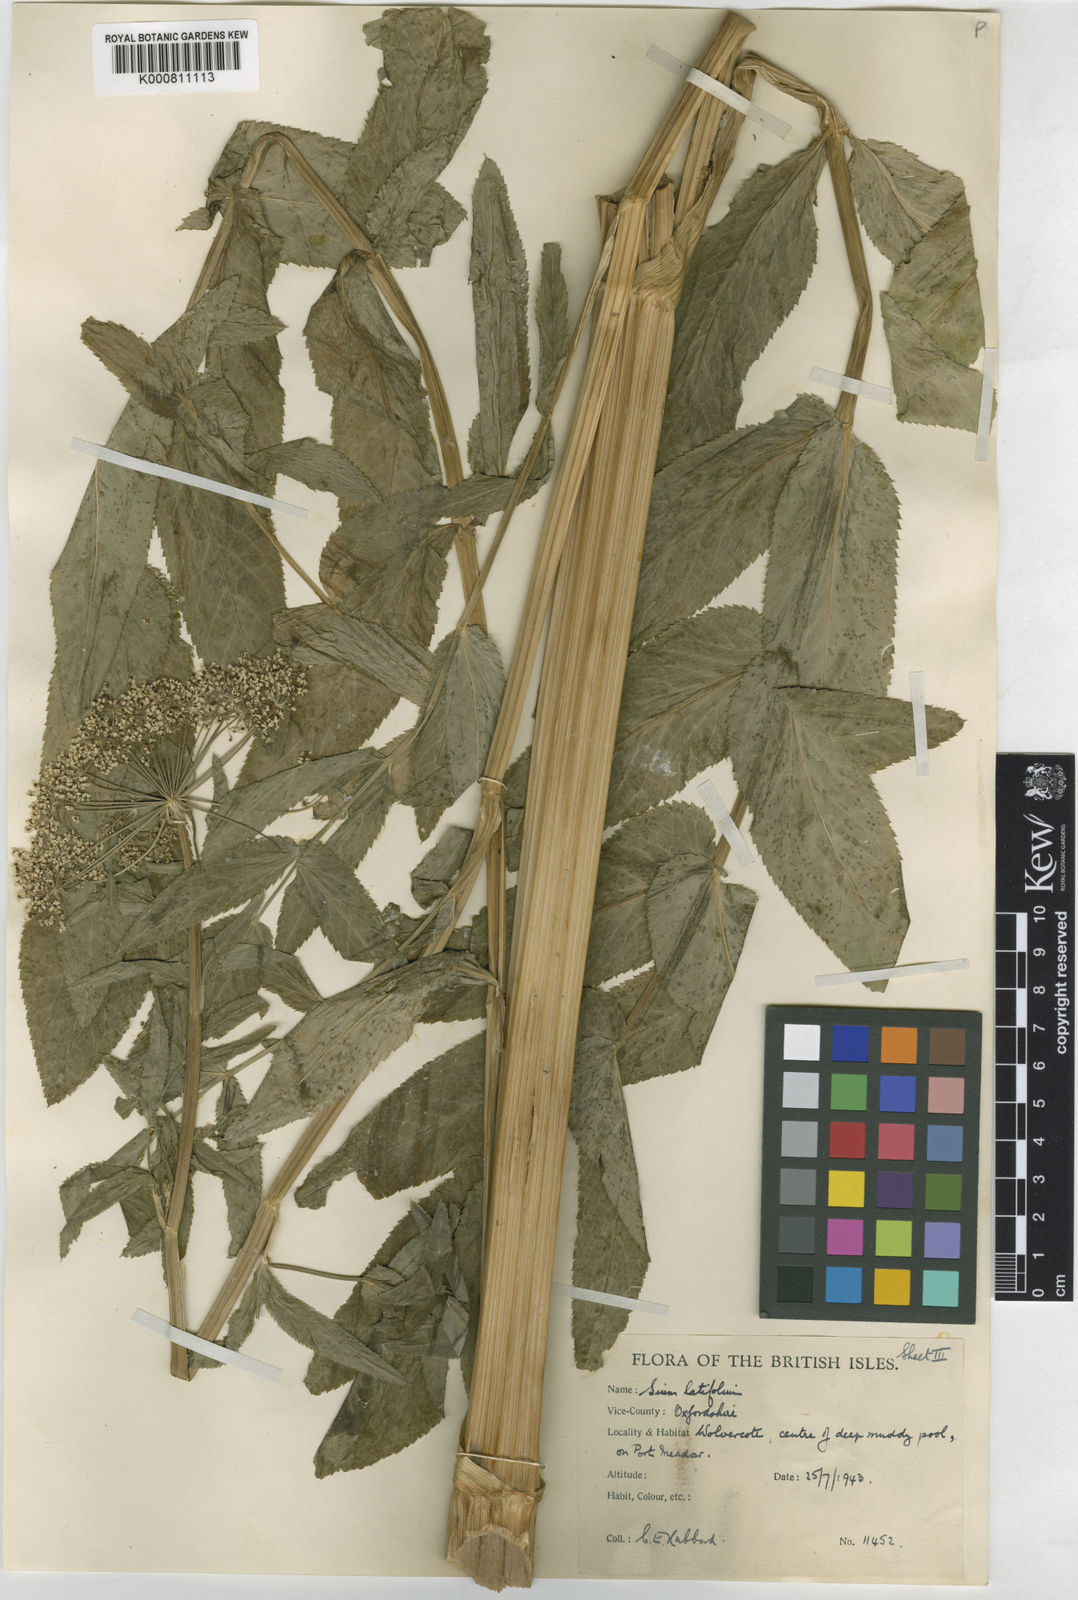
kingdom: Plantae
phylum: Tracheophyta
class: Magnoliopsida
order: Apiales
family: Apiaceae
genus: Sium
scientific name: Sium latifolium
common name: Greater water-parsnip
